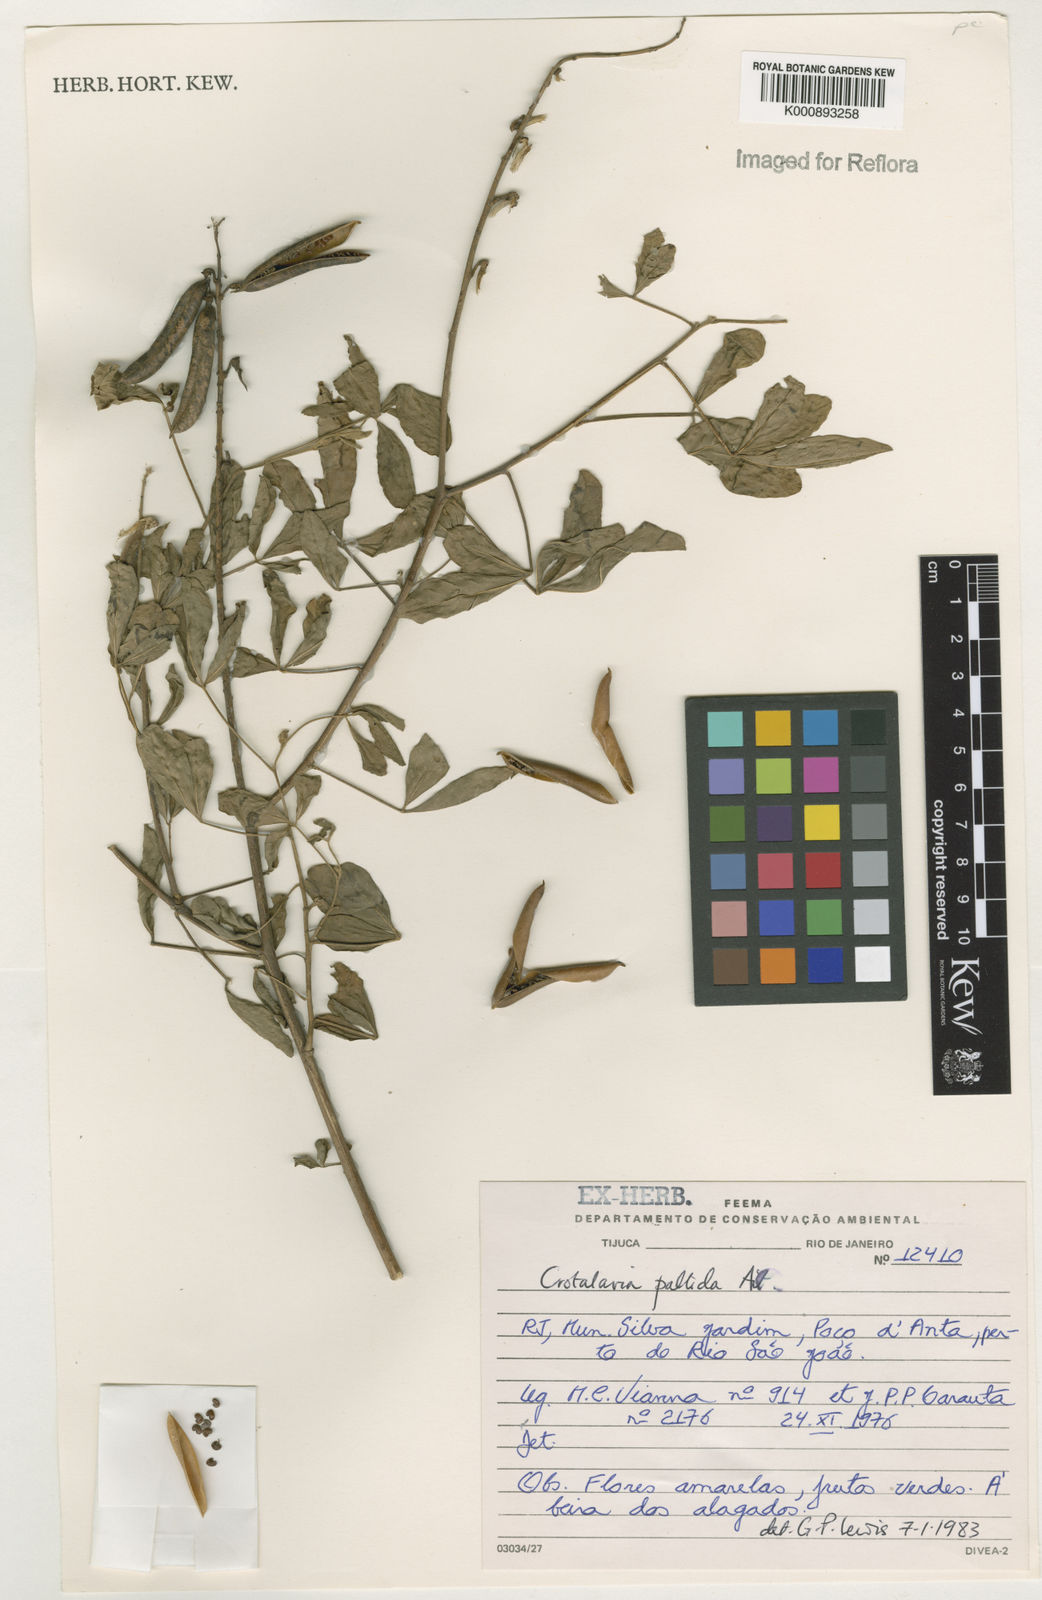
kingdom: Plantae
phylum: Tracheophyta
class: Magnoliopsida
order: Fabales
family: Fabaceae
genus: Crotalaria
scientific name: Crotalaria pallida
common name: Smooth rattlebox
